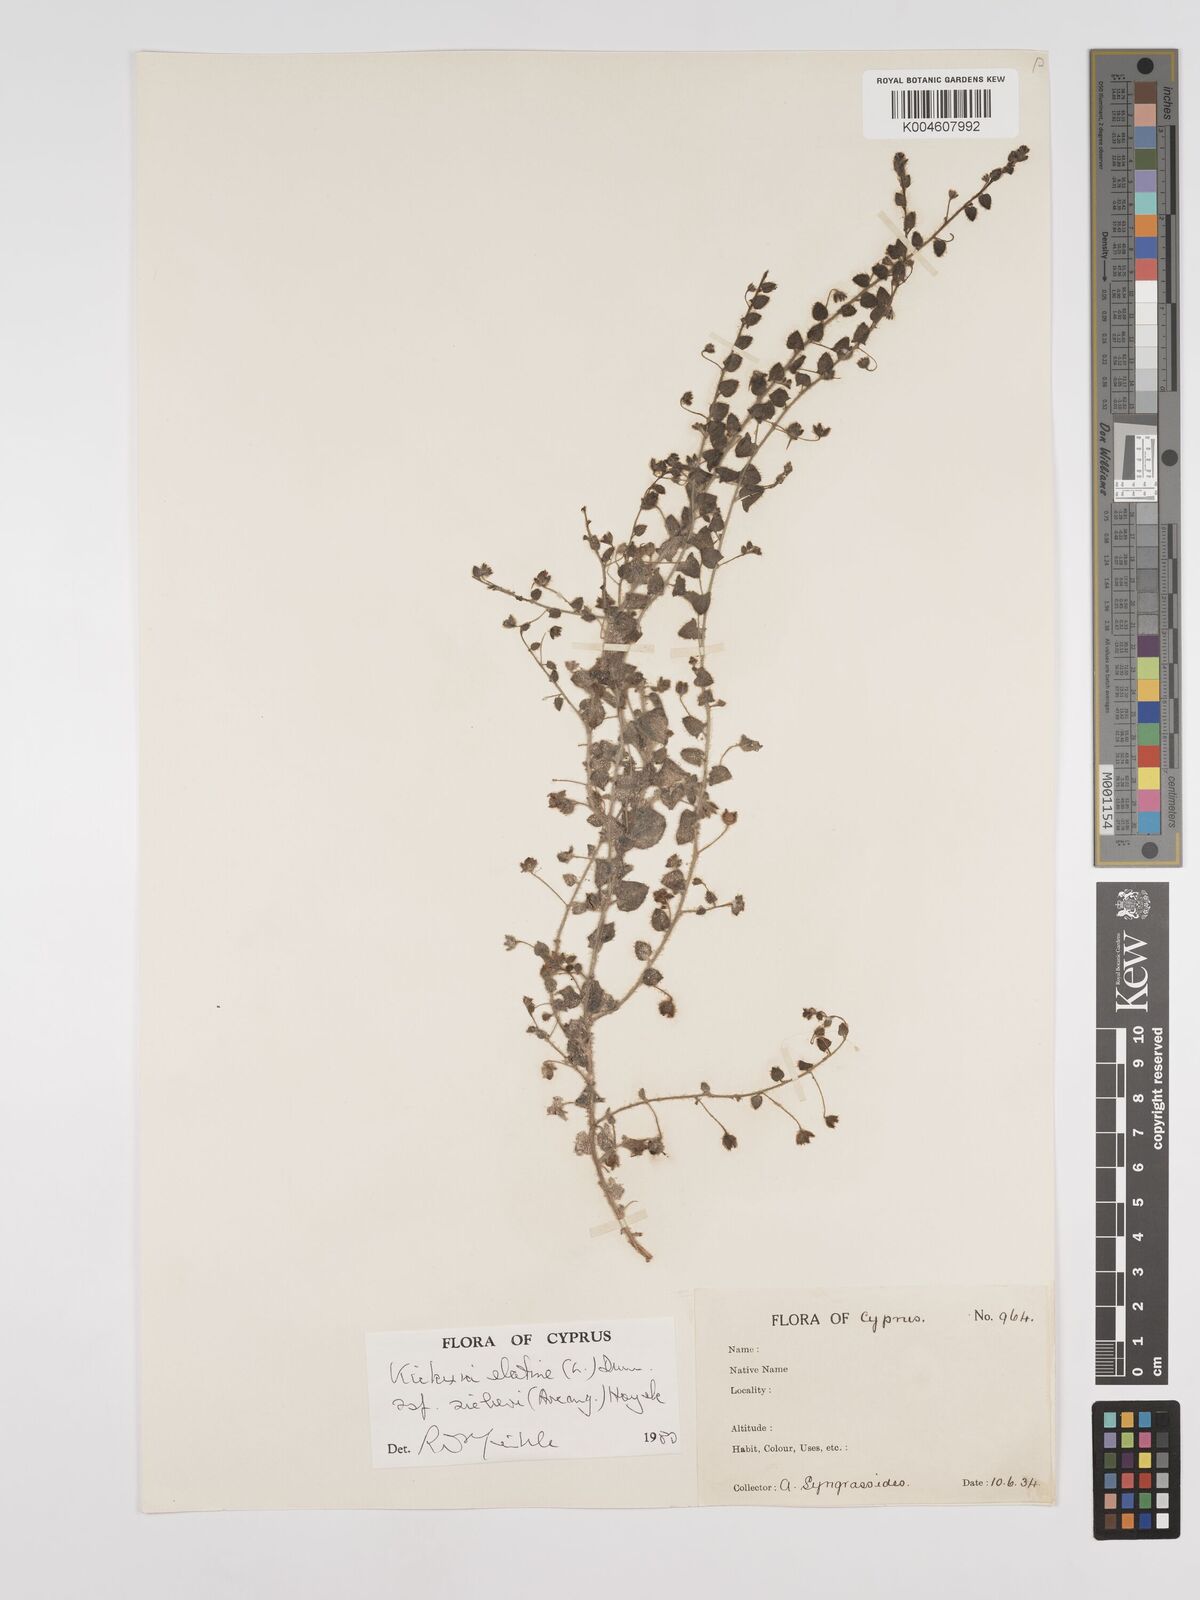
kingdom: Plantae
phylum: Tracheophyta
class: Magnoliopsida
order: Lamiales
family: Plantaginaceae
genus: Kickxia
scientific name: Kickxia elatine
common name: Sharp-leaved fluellen
